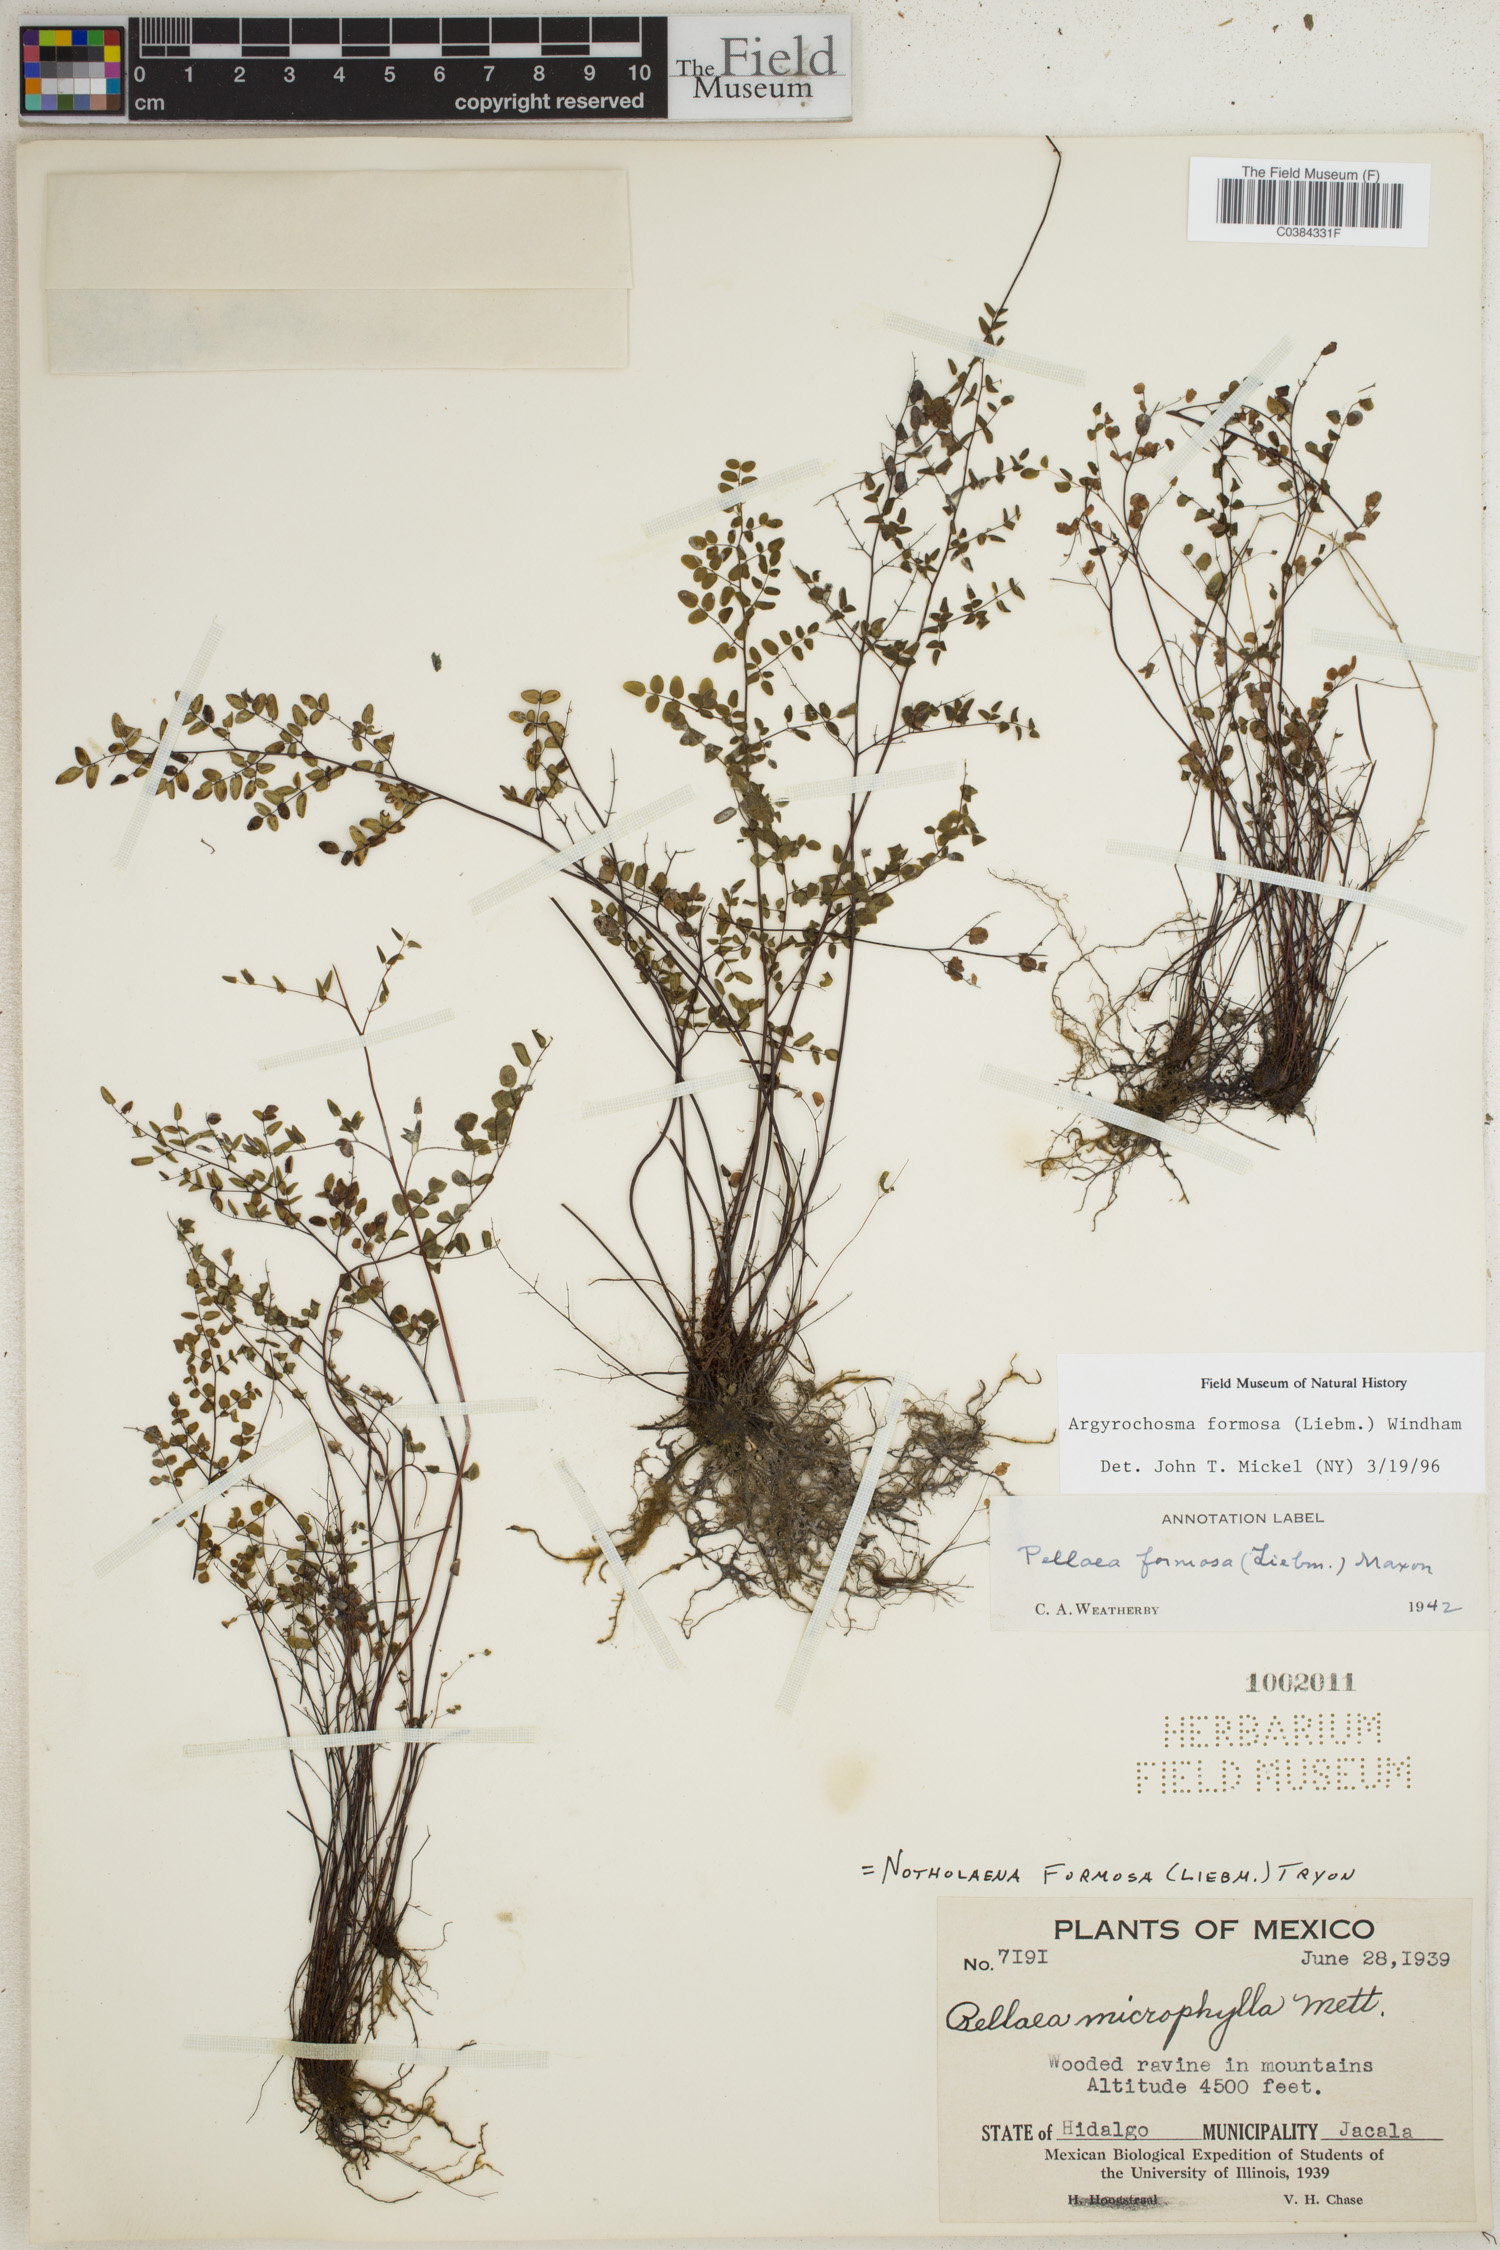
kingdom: Plantae
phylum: Tracheophyta
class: Polypodiopsida
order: Polypodiales
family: Pteridaceae
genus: Argyrochosma
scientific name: Argyrochosma formosa
